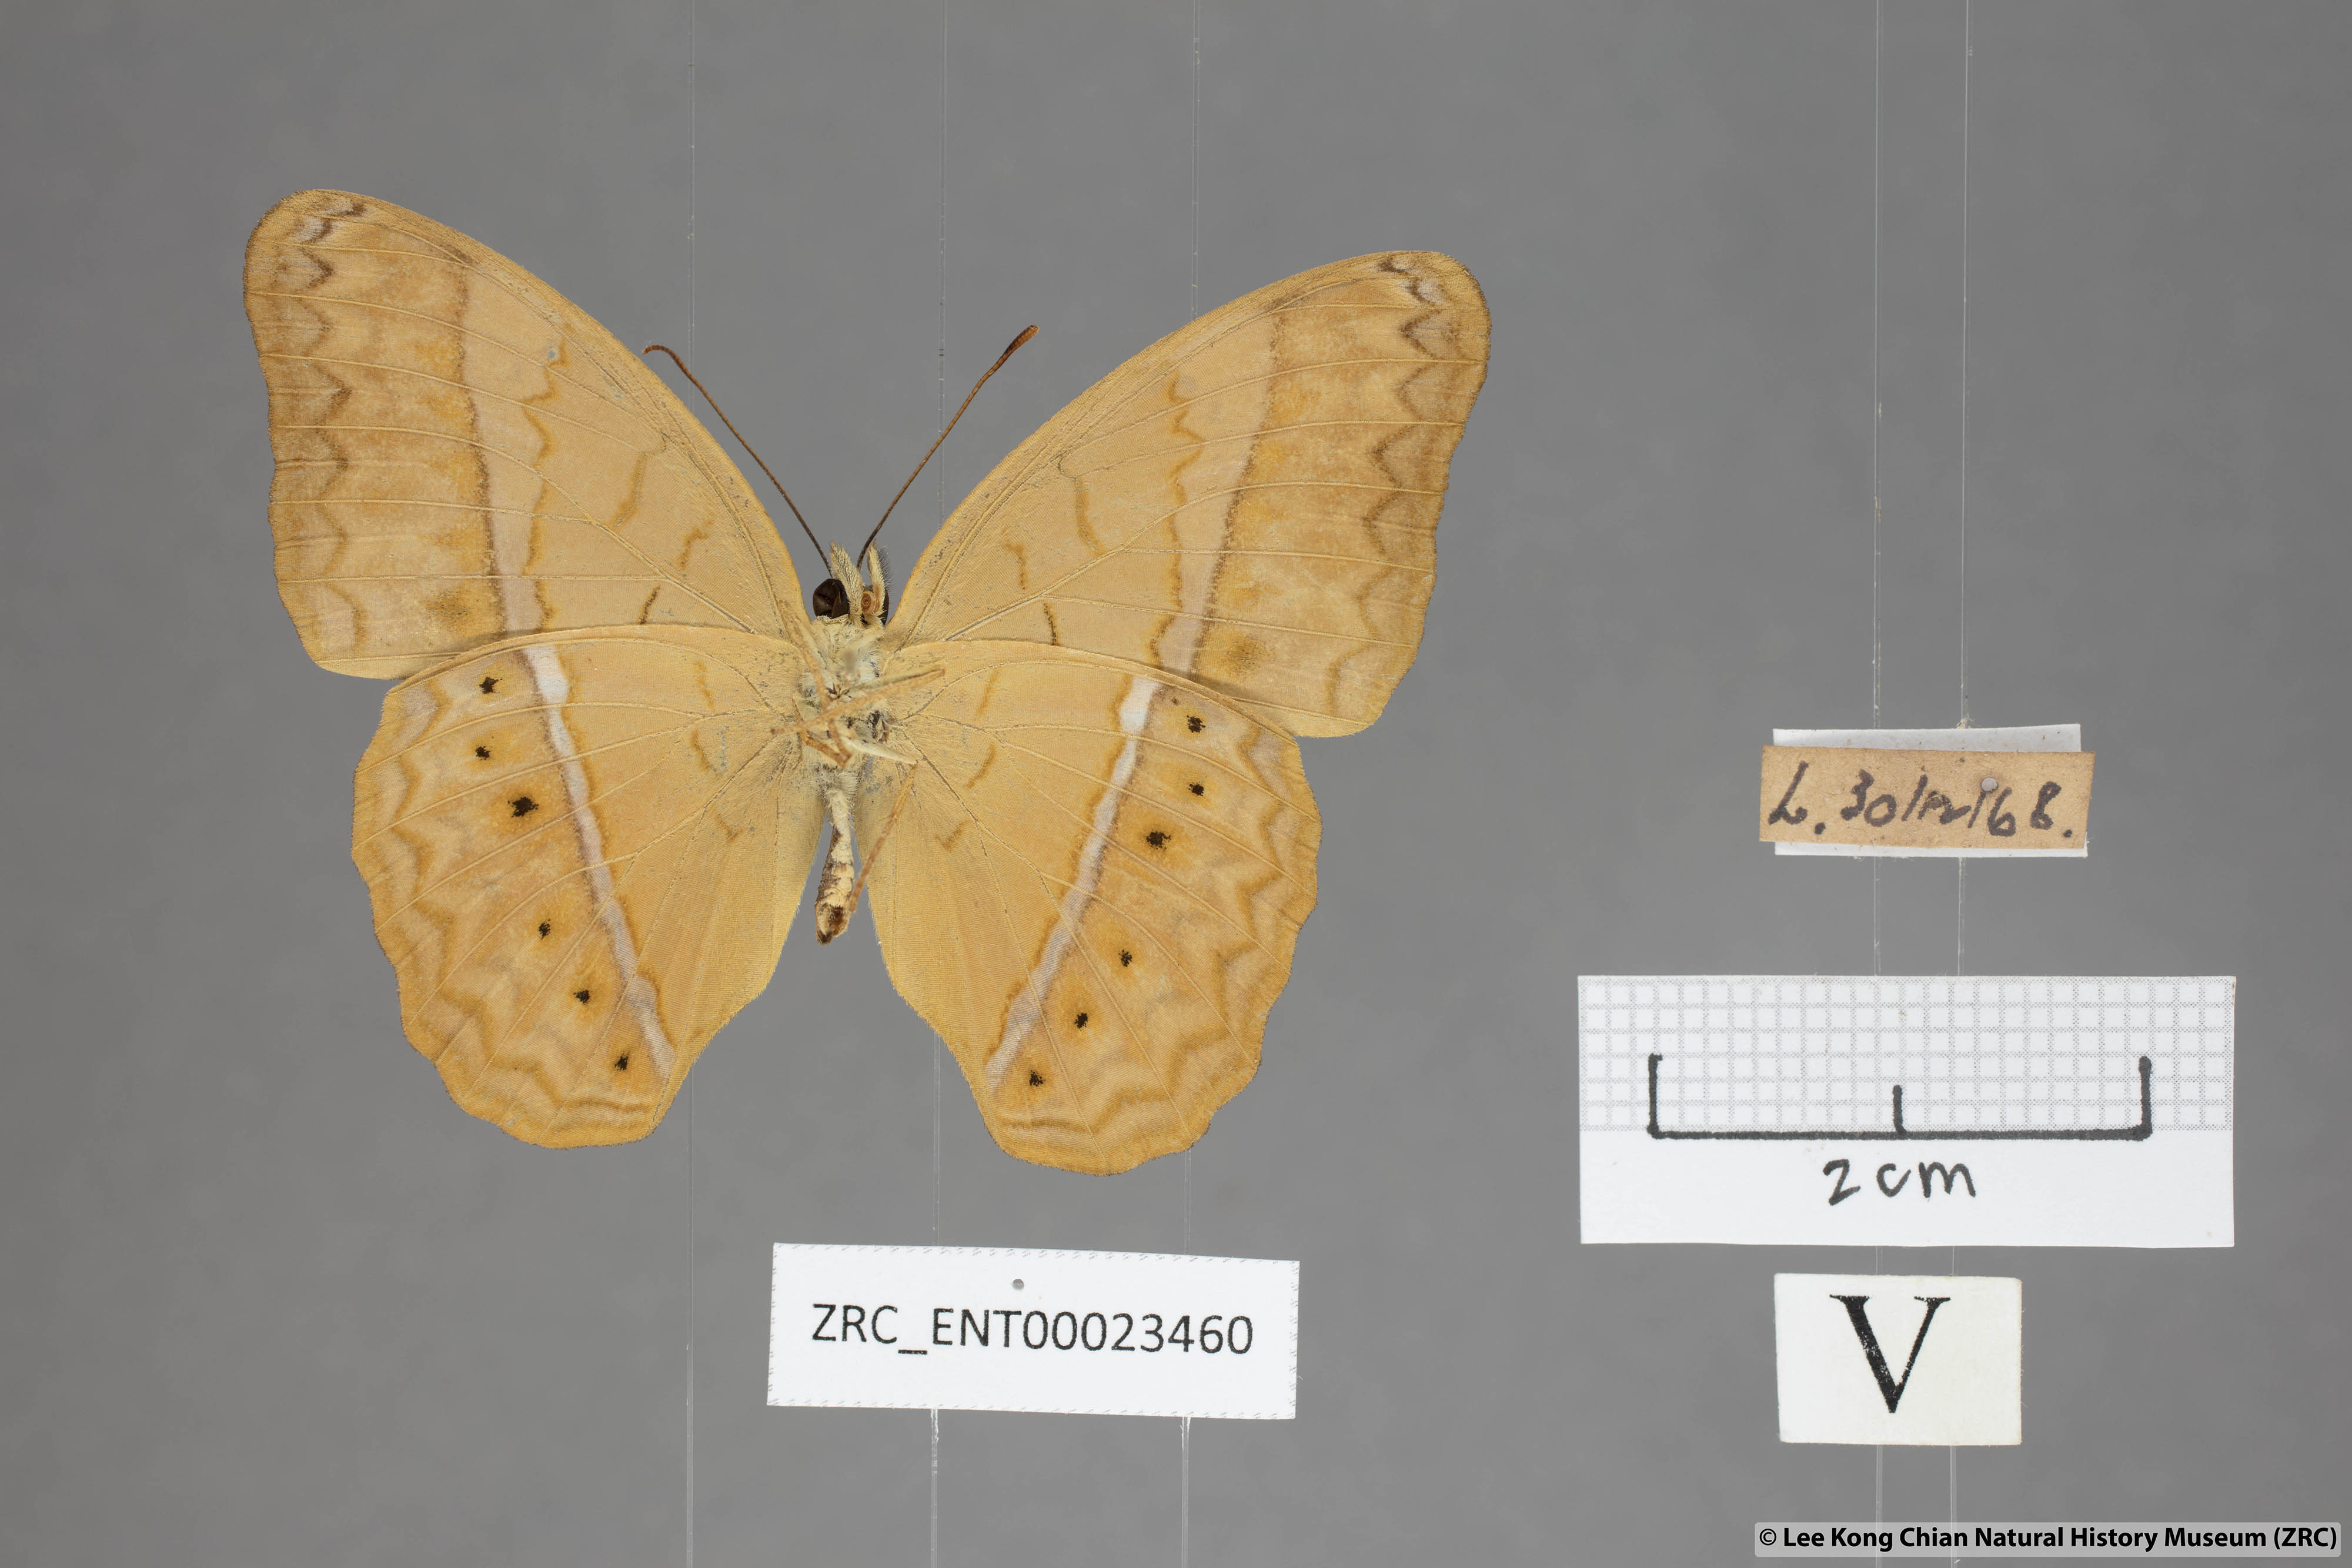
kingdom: Animalia
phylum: Arthropoda
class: Insecta
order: Lepidoptera
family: Nymphalidae
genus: Cirrochroa
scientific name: Cirrochroa surya
